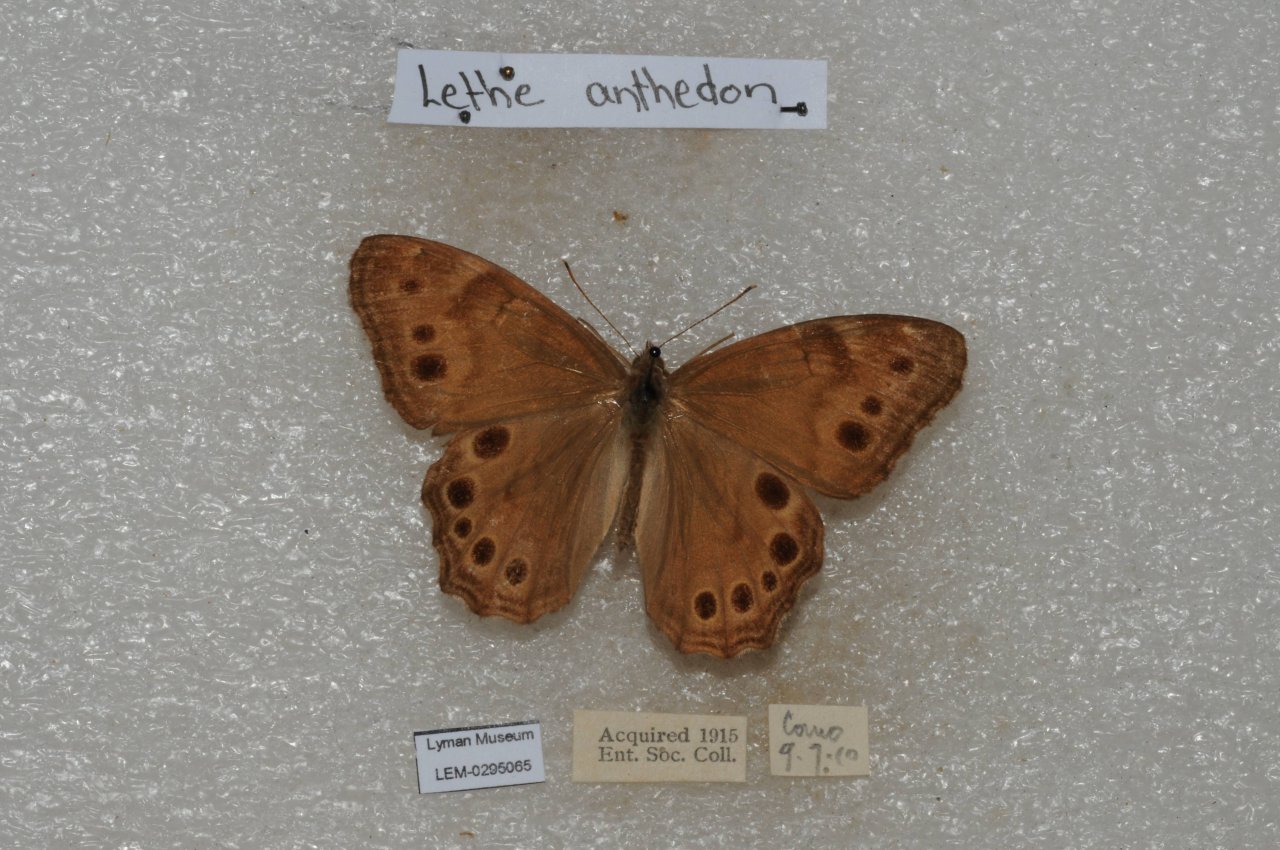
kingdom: Animalia
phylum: Arthropoda
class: Insecta
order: Lepidoptera
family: Nymphalidae
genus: Lethe
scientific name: Lethe anthedon
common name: Northern Pearly-Eye
